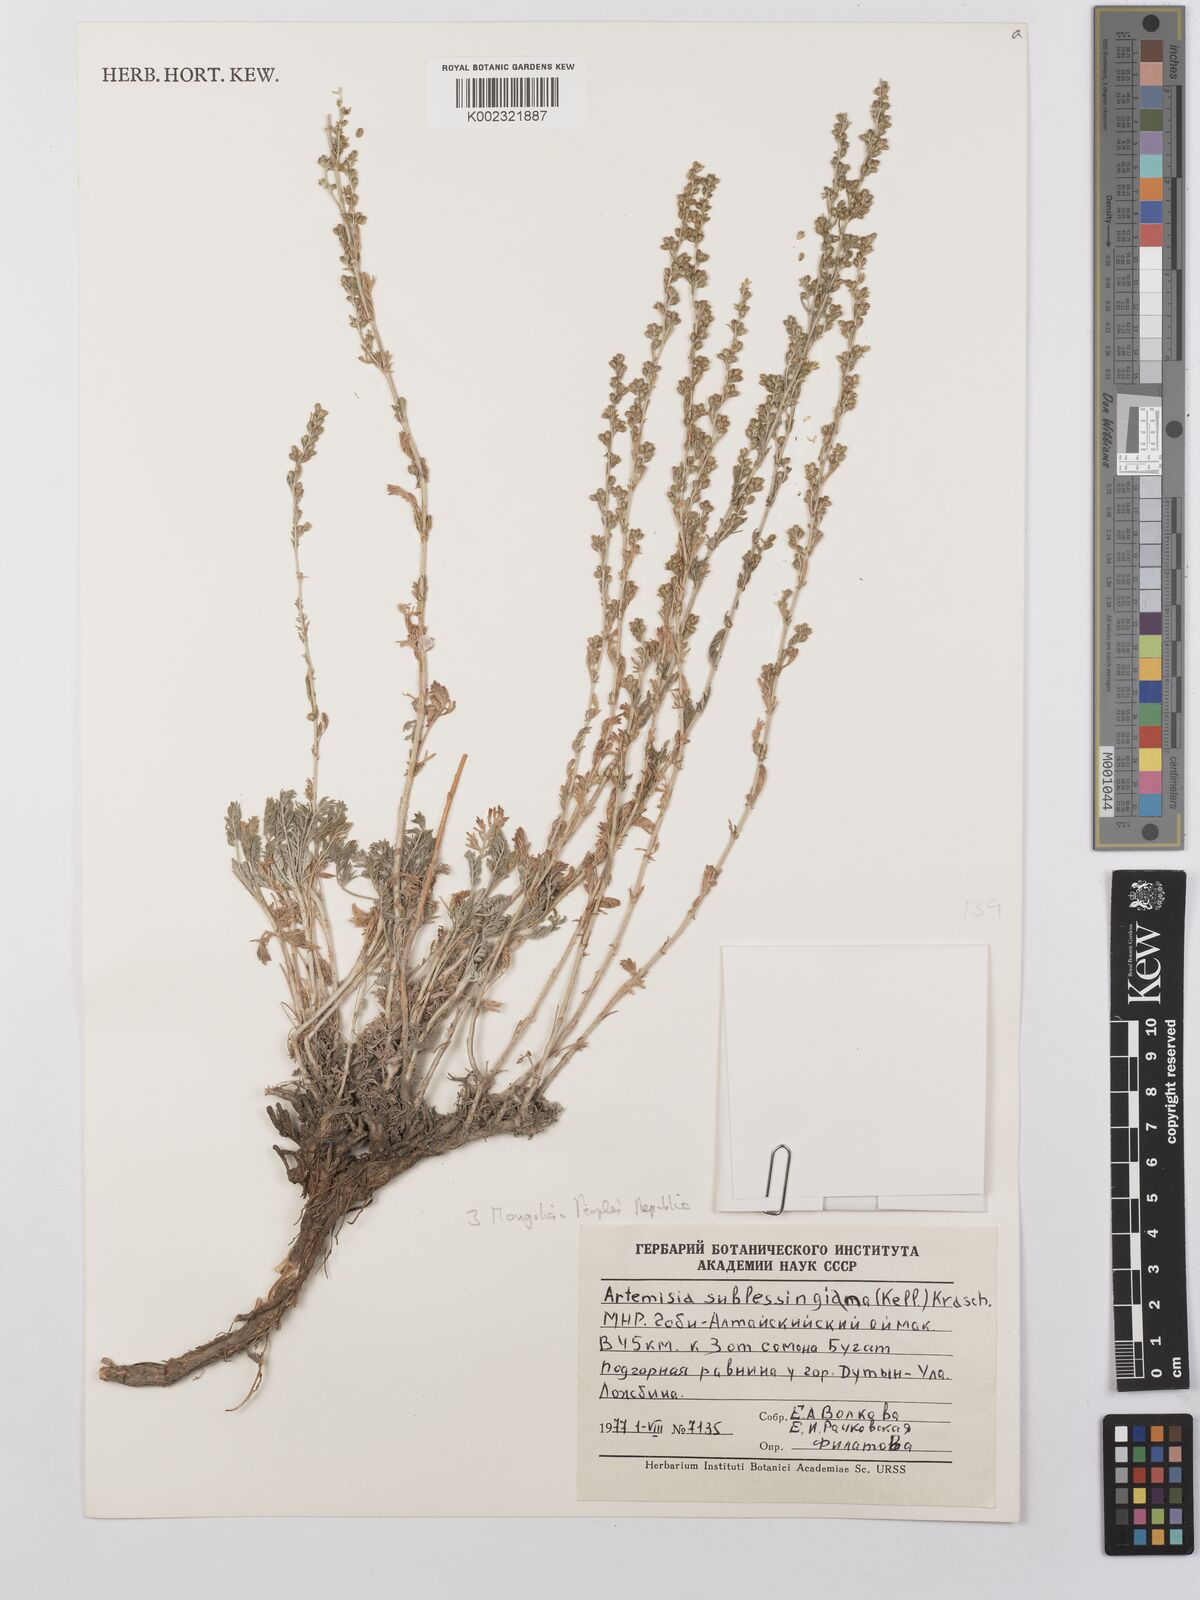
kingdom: Plantae
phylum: Tracheophyta
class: Magnoliopsida
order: Asterales
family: Asteraceae
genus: Artemisia
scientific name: Artemisia sublessingiana
